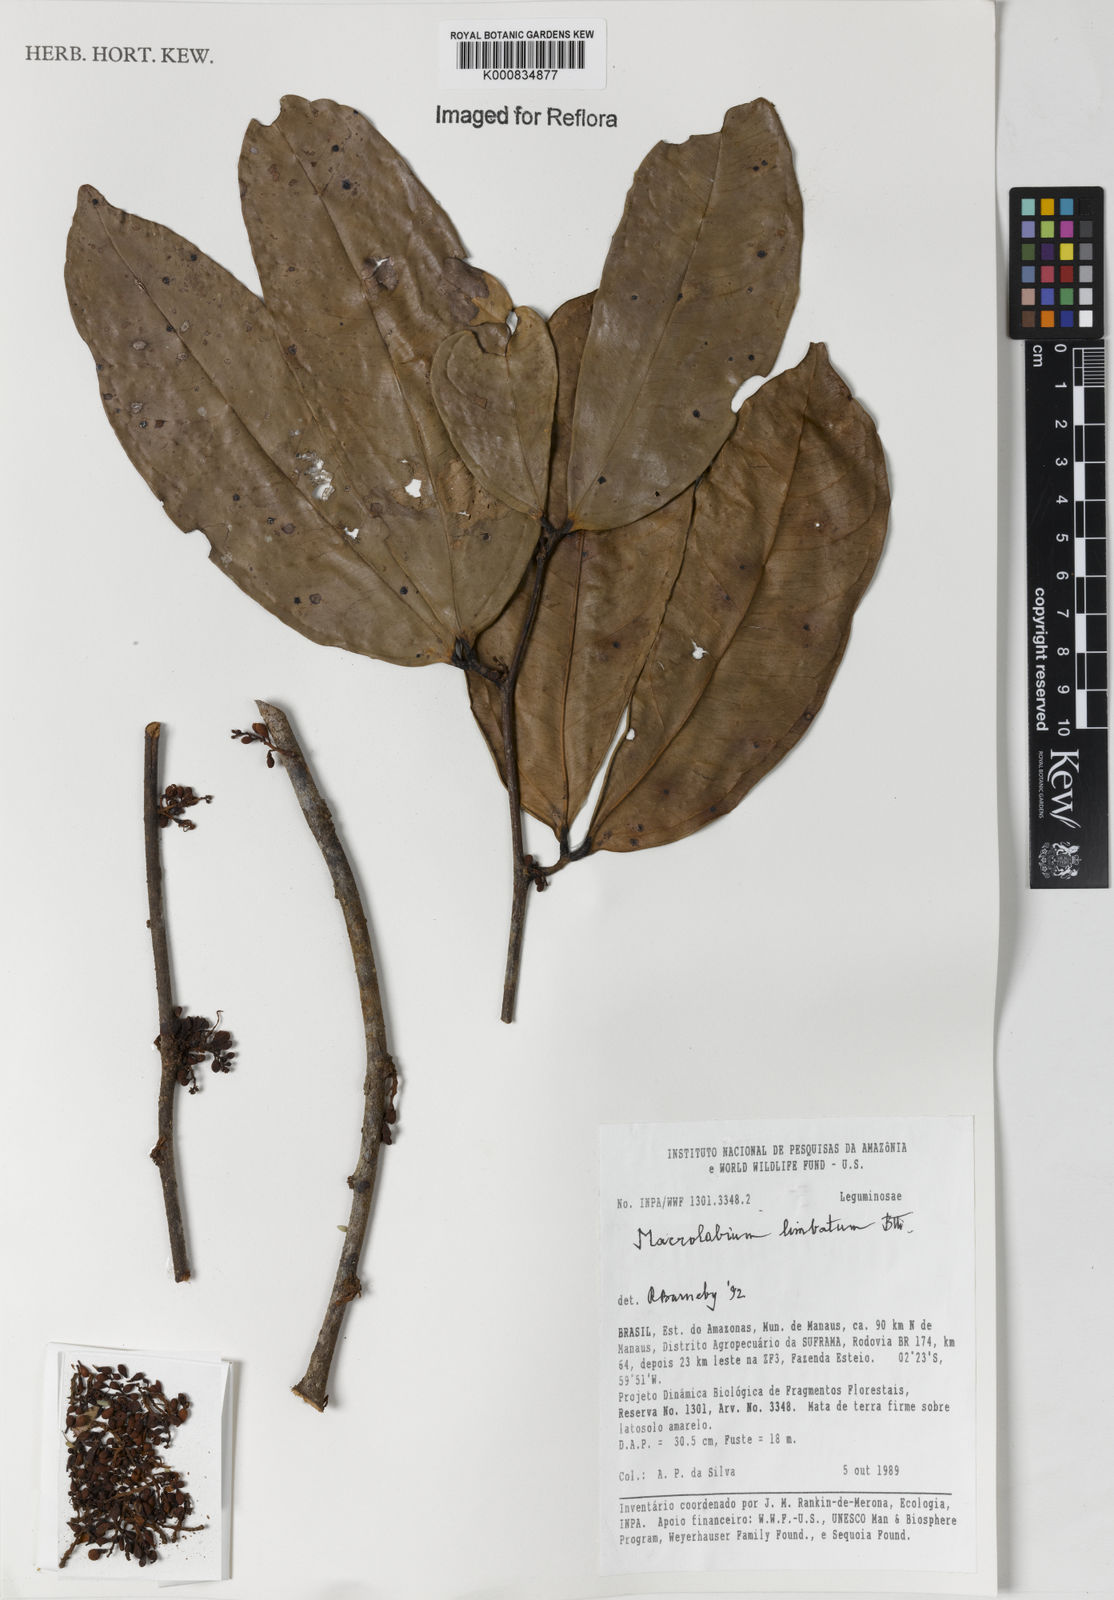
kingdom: Plantae
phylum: Tracheophyta
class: Magnoliopsida
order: Fabales
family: Fabaceae
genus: Macrolobium
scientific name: Macrolobium limbatum
